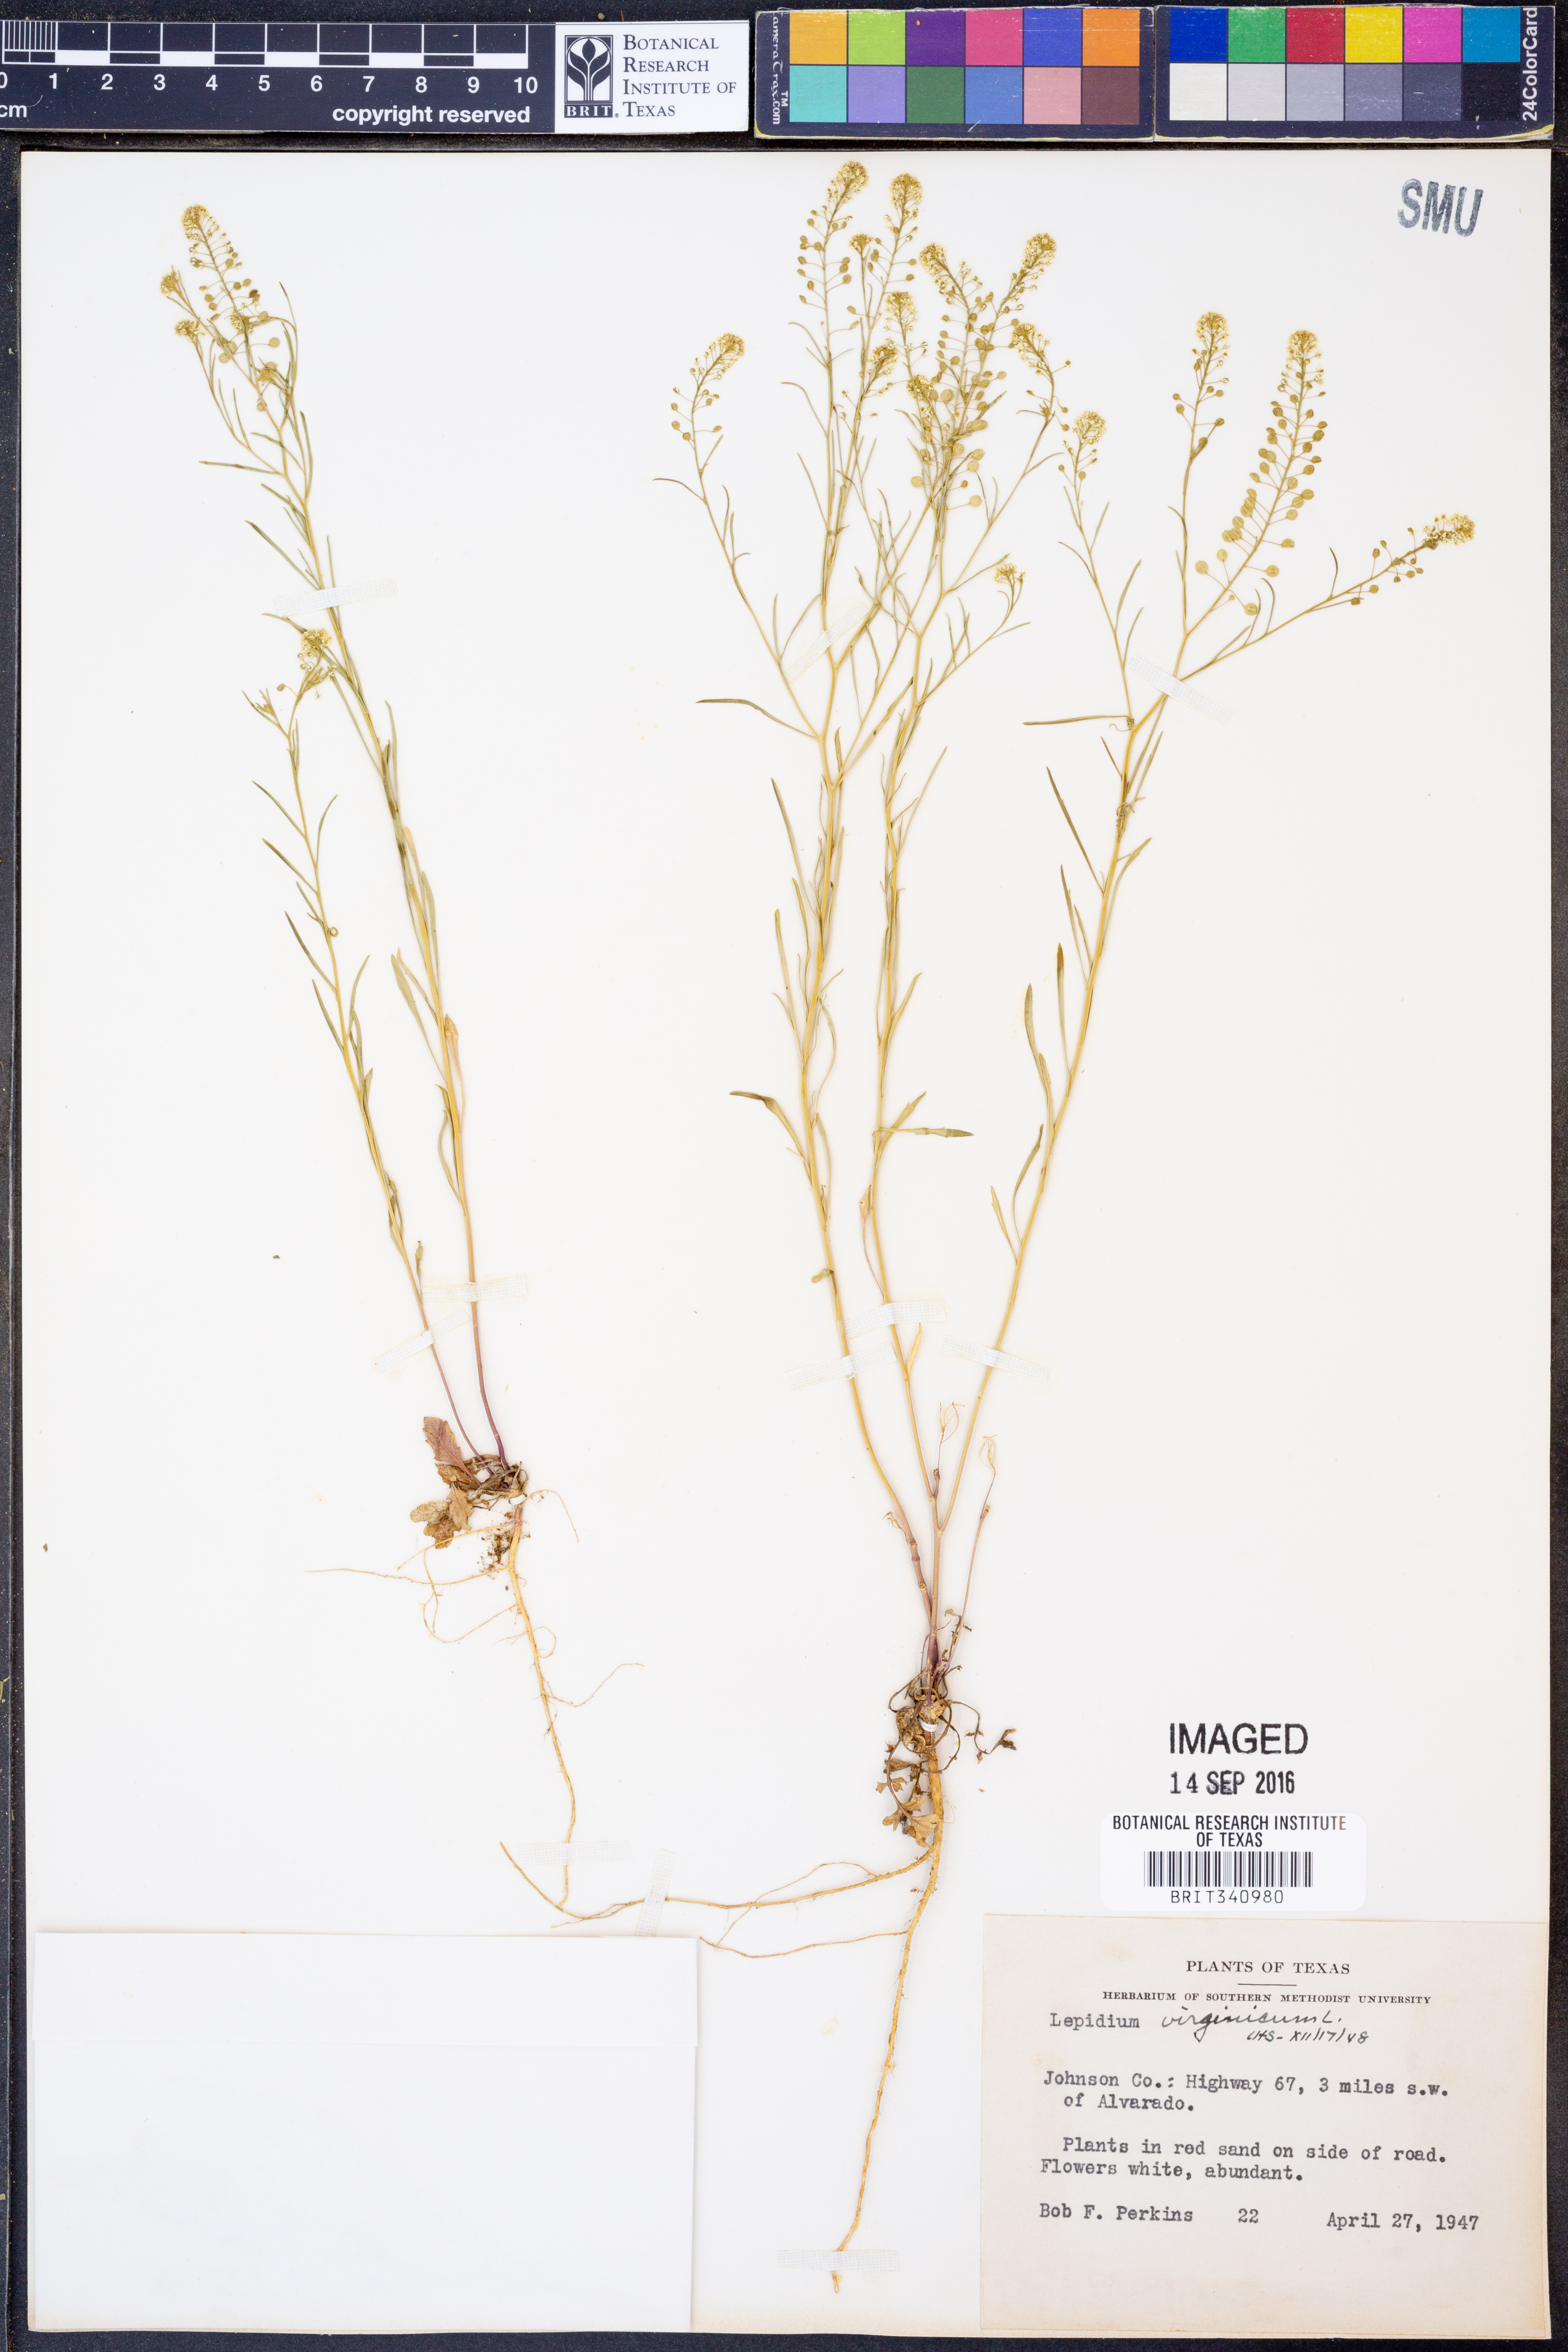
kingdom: Plantae
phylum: Tracheophyta
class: Magnoliopsida
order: Brassicales
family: Brassicaceae
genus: Lepidium
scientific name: Lepidium virginicum
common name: Least pepperwort
